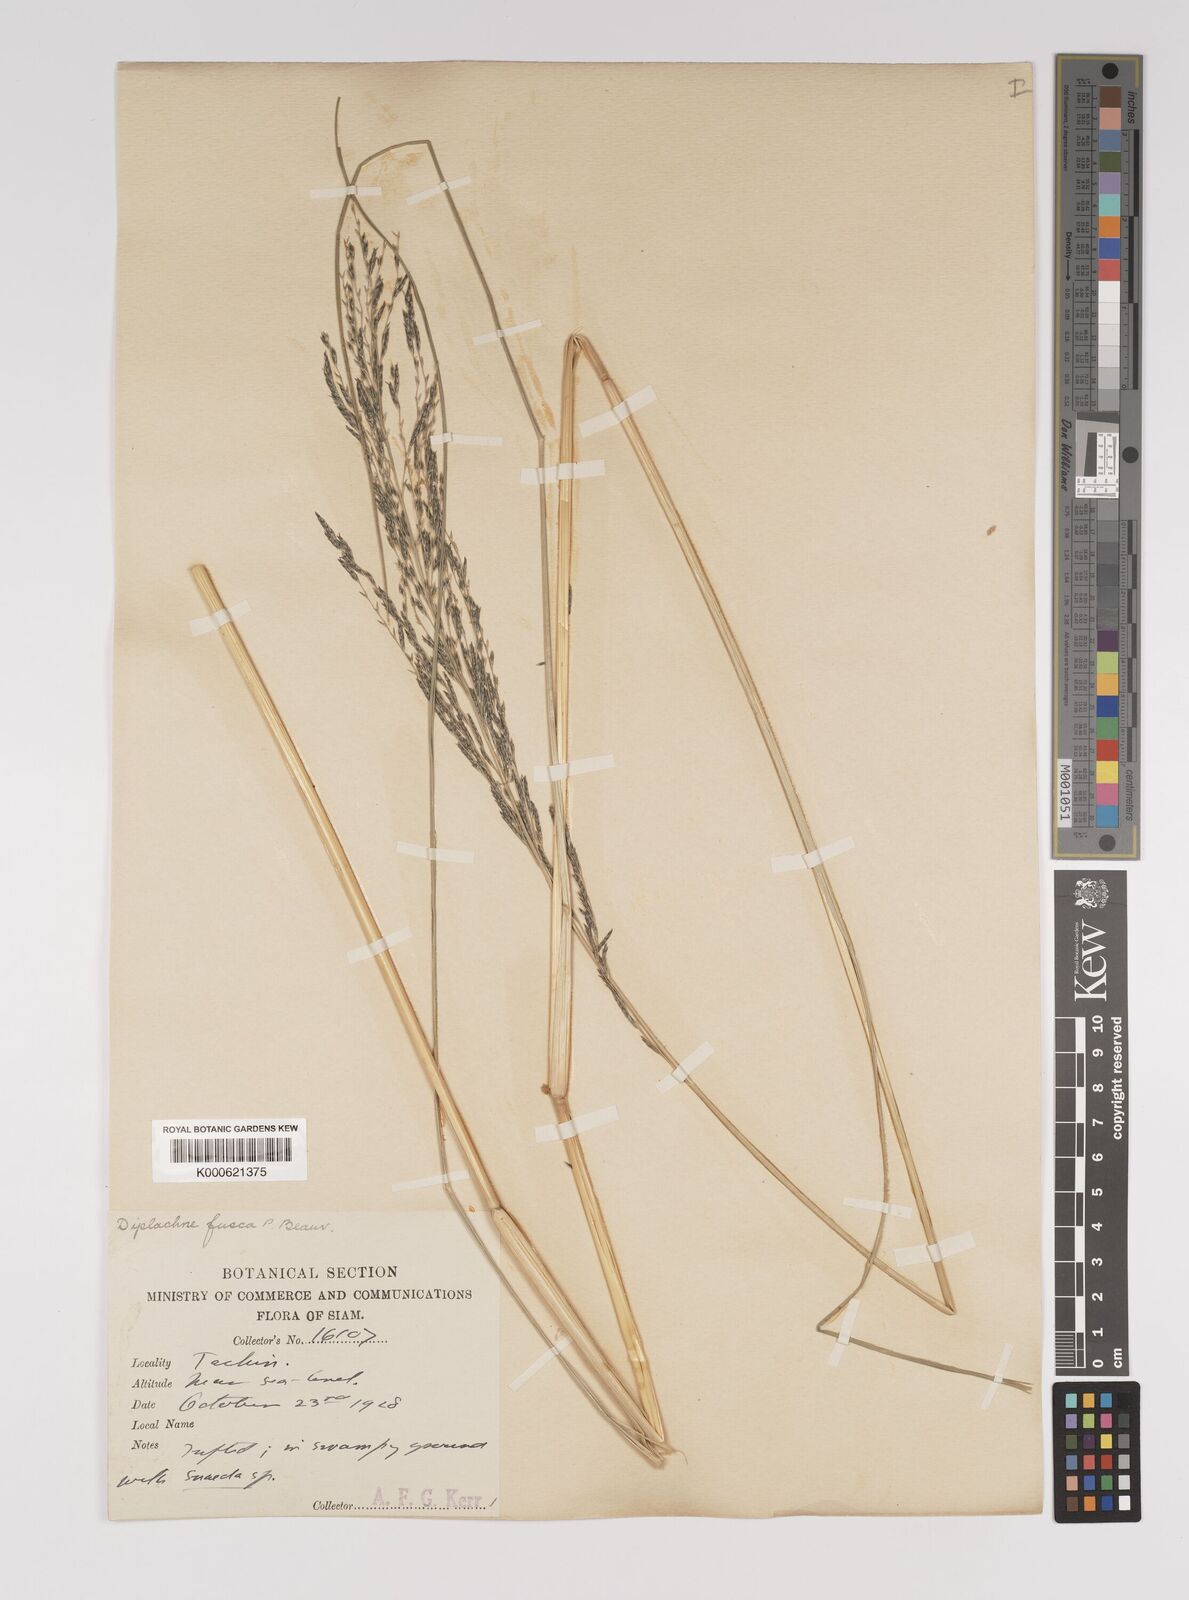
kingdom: Plantae
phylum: Tracheophyta
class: Liliopsida
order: Poales
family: Poaceae
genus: Diplachne
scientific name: Diplachne fusca
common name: Brown beetle grass
